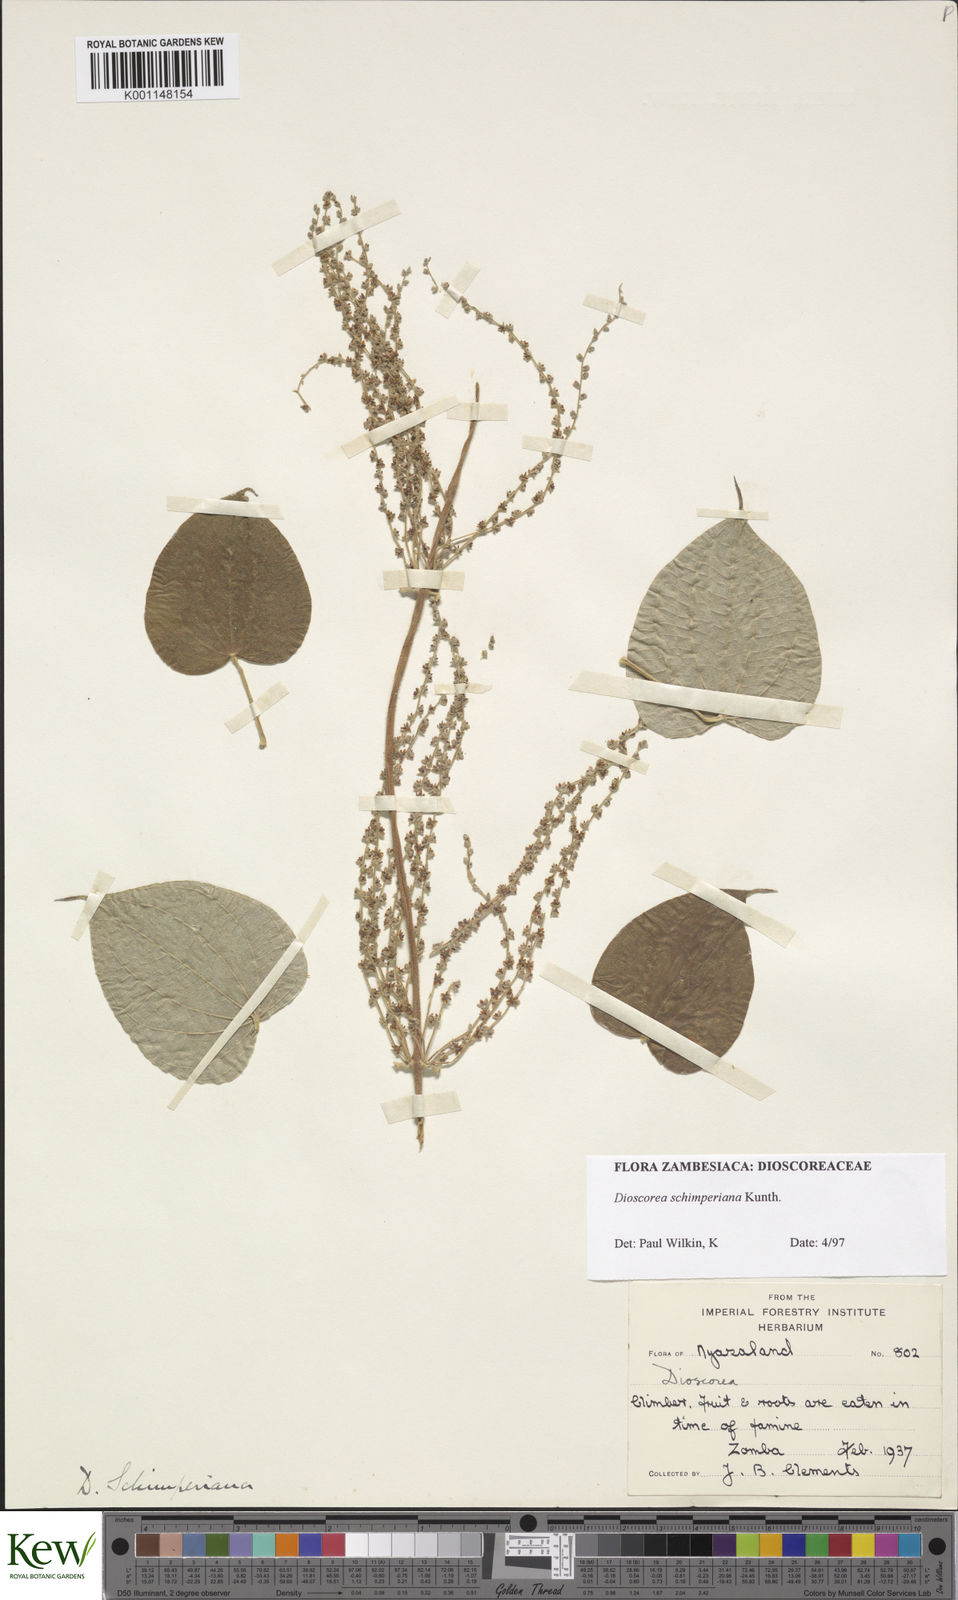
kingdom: Plantae
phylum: Tracheophyta
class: Liliopsida
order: Dioscoreales
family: Dioscoreaceae
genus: Dioscorea
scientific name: Dioscorea schimperiana
